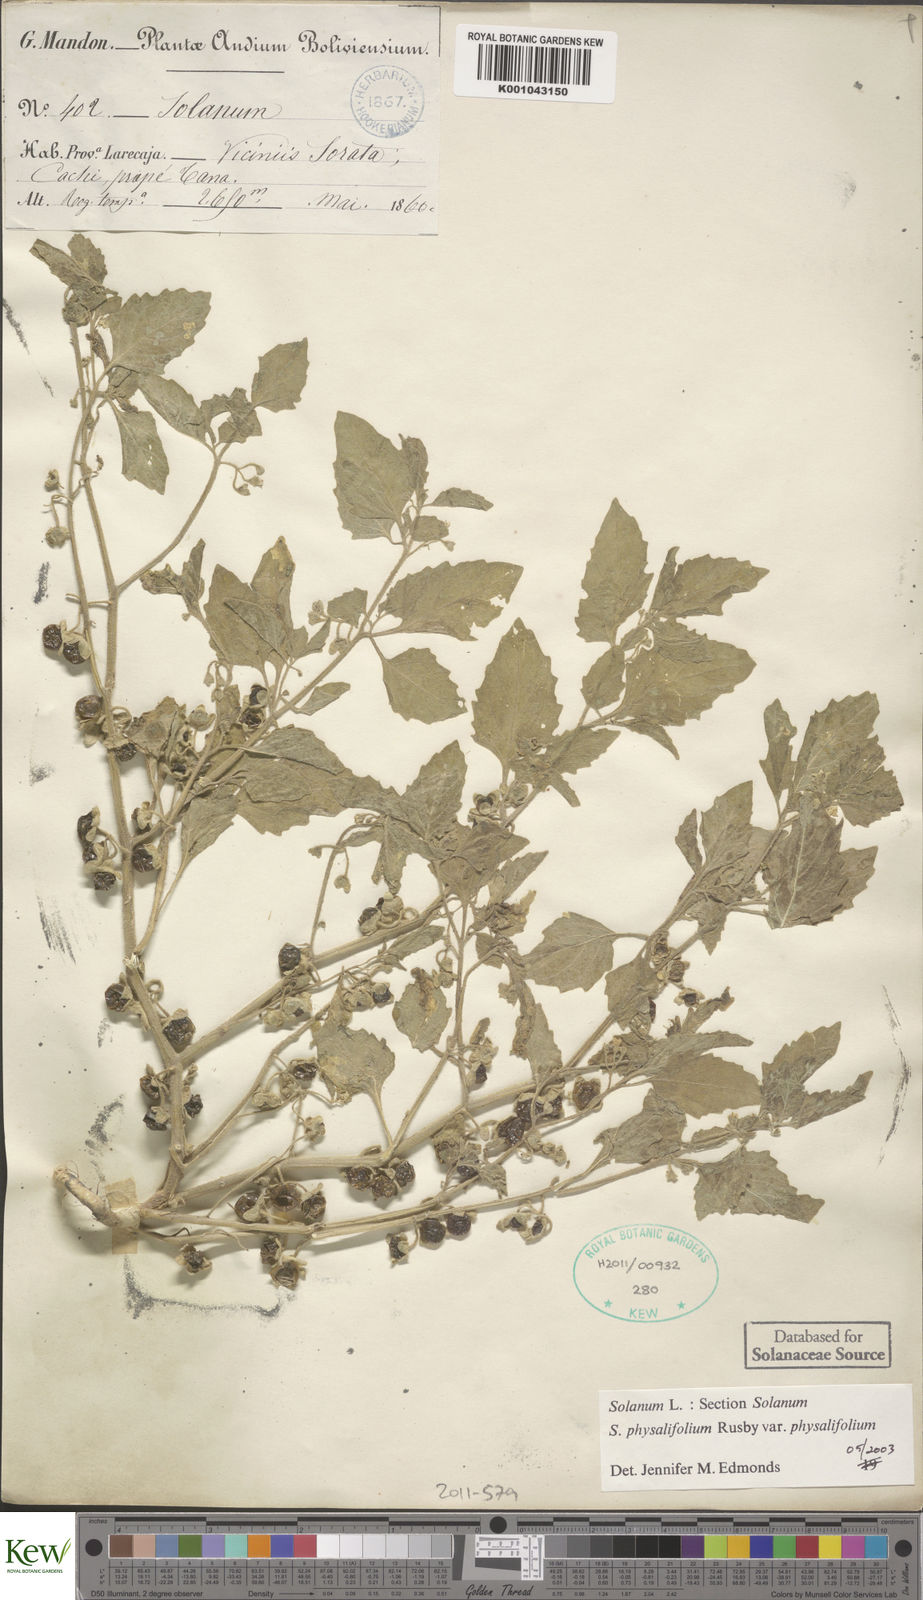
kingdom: Plantae
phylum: Tracheophyta
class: Magnoliopsida
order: Solanales
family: Solanaceae
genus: Solanum
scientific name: Solanum physalifolium
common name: Green nightshade
